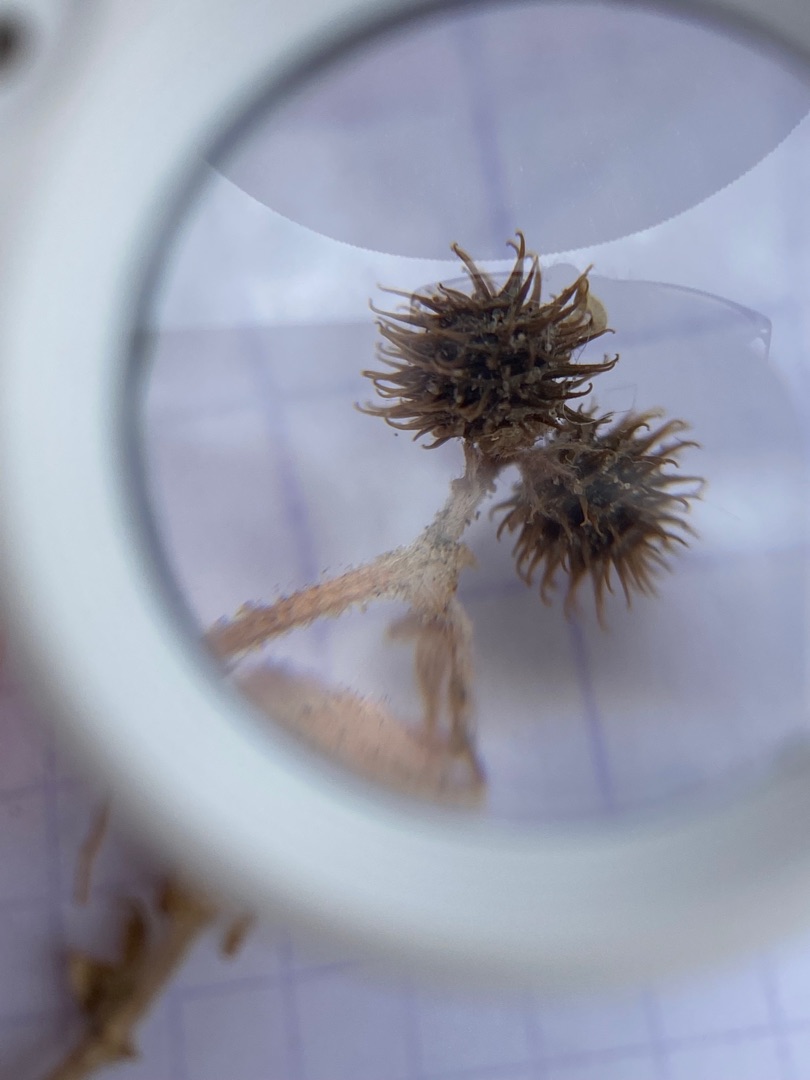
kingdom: Plantae
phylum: Tracheophyta
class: Magnoliopsida
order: Fabales
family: Fabaceae
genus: Medicago
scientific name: Medicago minima
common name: Liden sneglebælg
